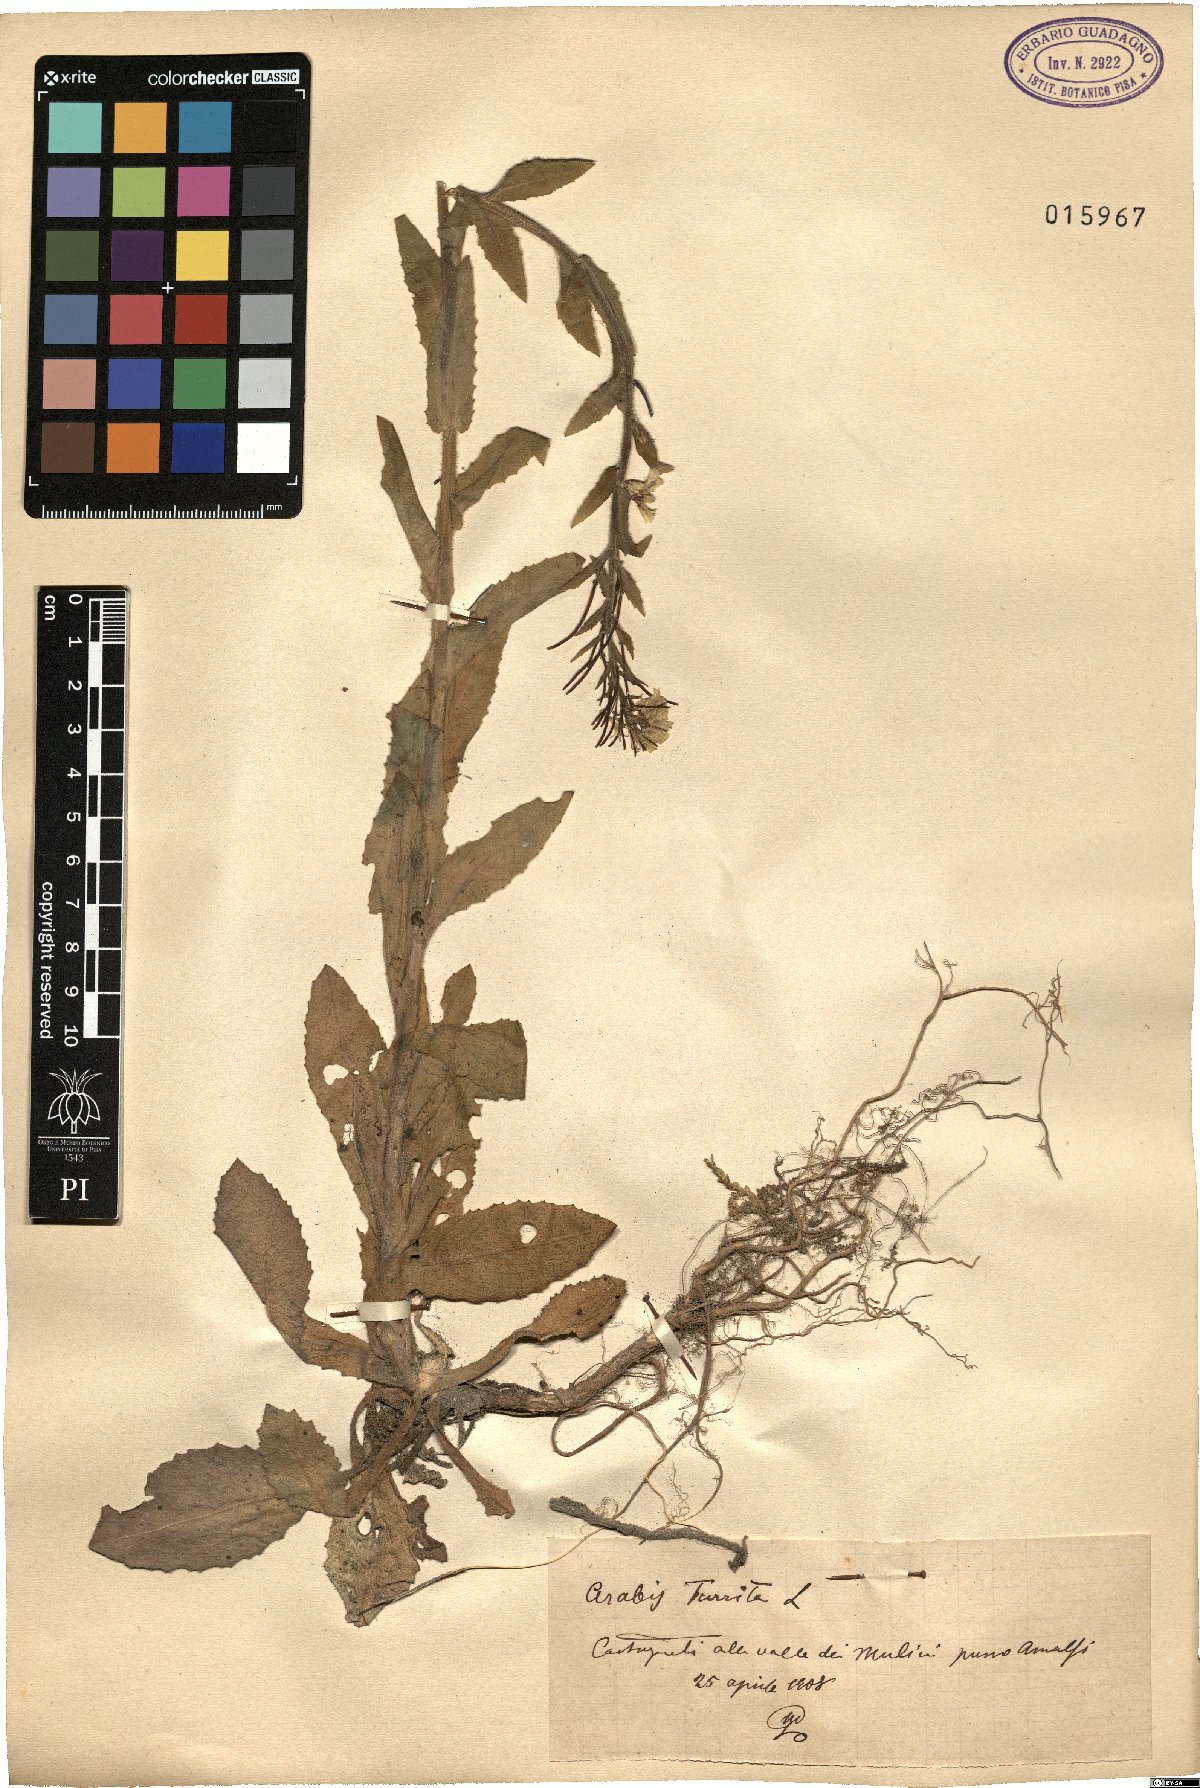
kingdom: Plantae
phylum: Tracheophyta
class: Magnoliopsida
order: Brassicales
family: Brassicaceae
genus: Pseudoturritis
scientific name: Pseudoturritis turrita
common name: Tower cress
